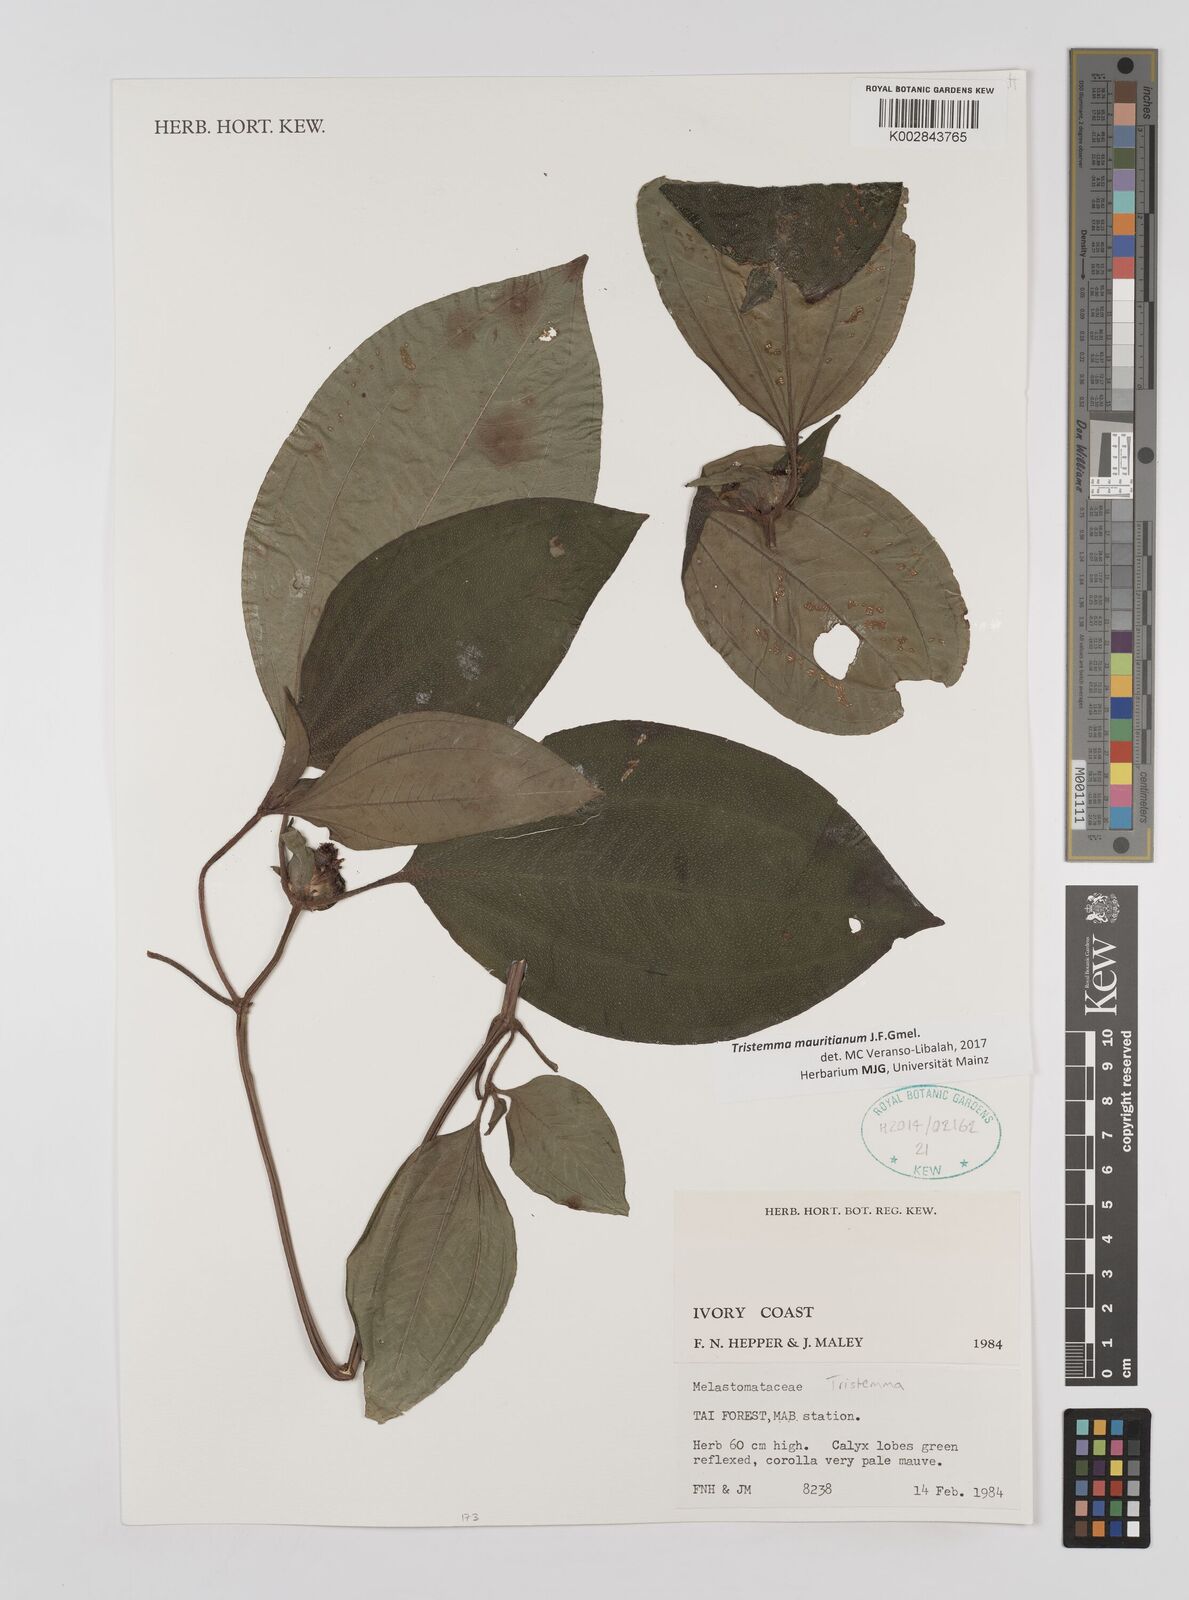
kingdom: Plantae
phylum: Tracheophyta
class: Magnoliopsida
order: Myrtales
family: Melastomataceae
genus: Tristemma
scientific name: Tristemma mauritianum
